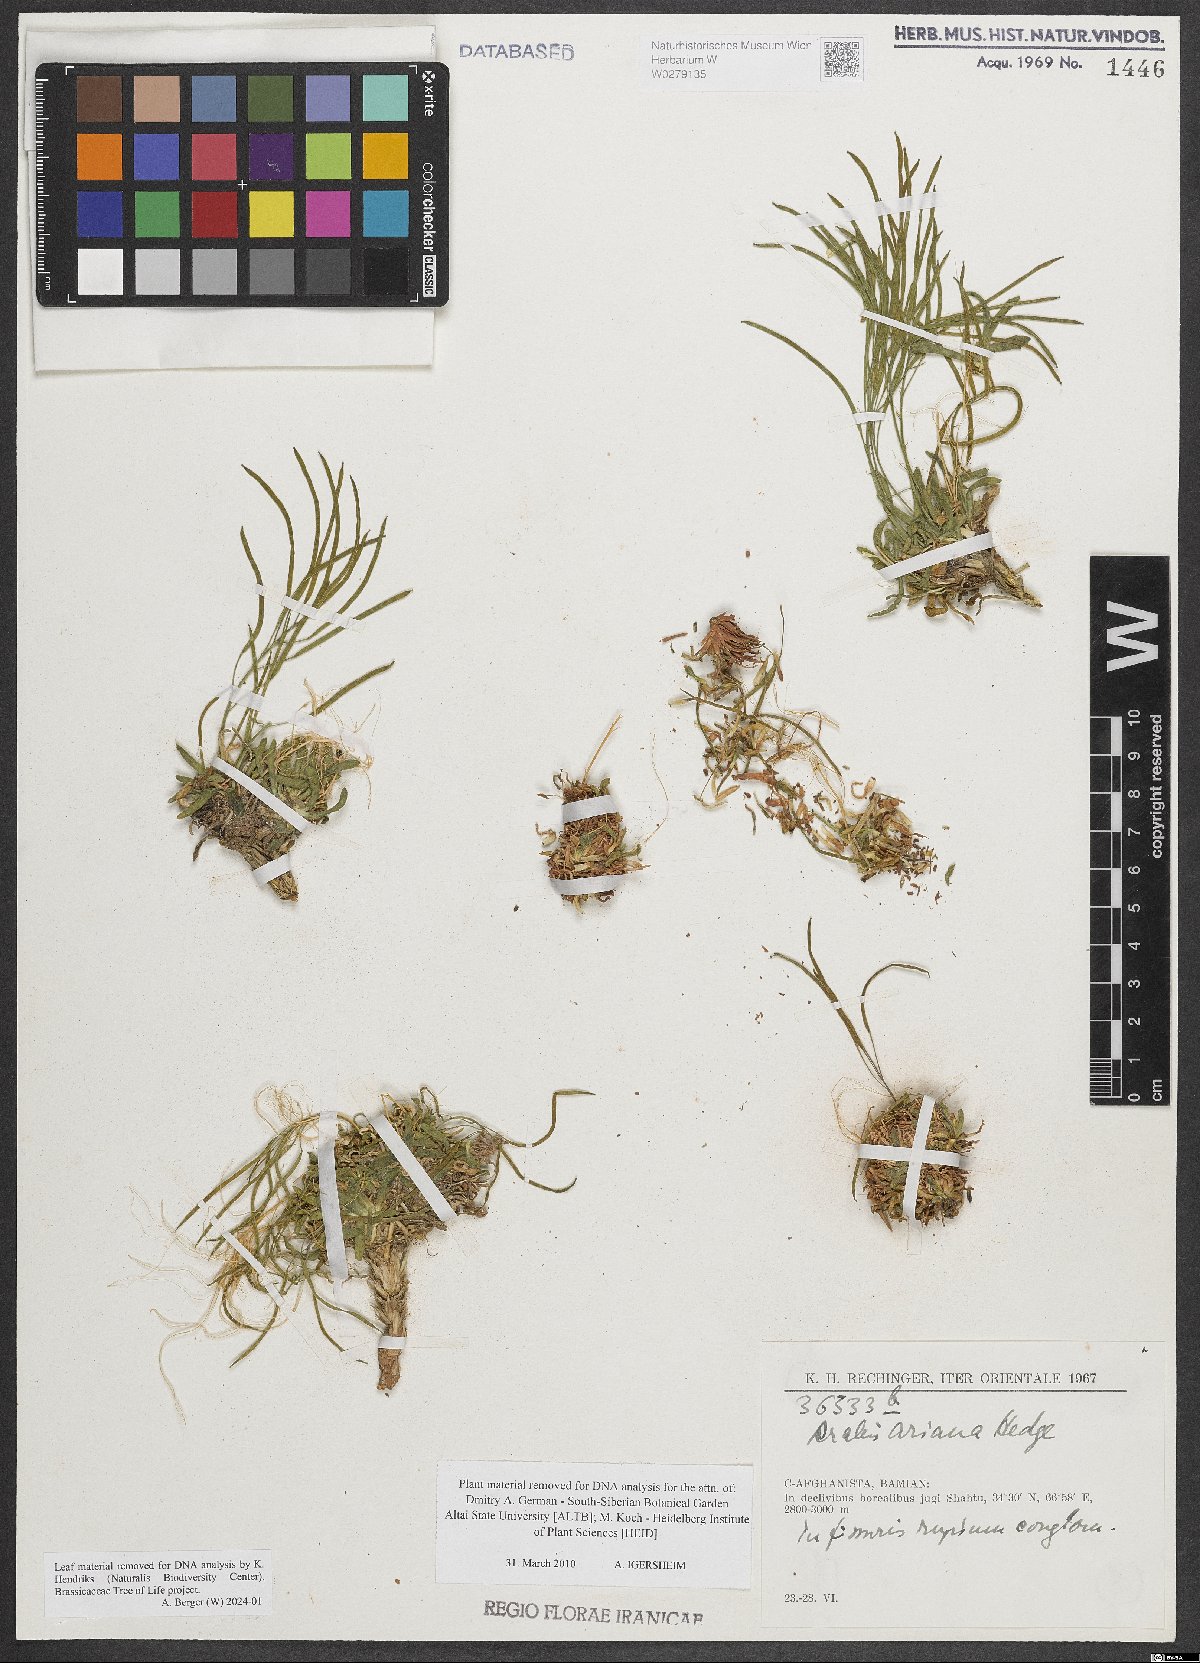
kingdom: Plantae
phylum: Tracheophyta
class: Magnoliopsida
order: Brassicales
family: Brassicaceae
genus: Scapiarabis
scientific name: Scapiarabis ariana
